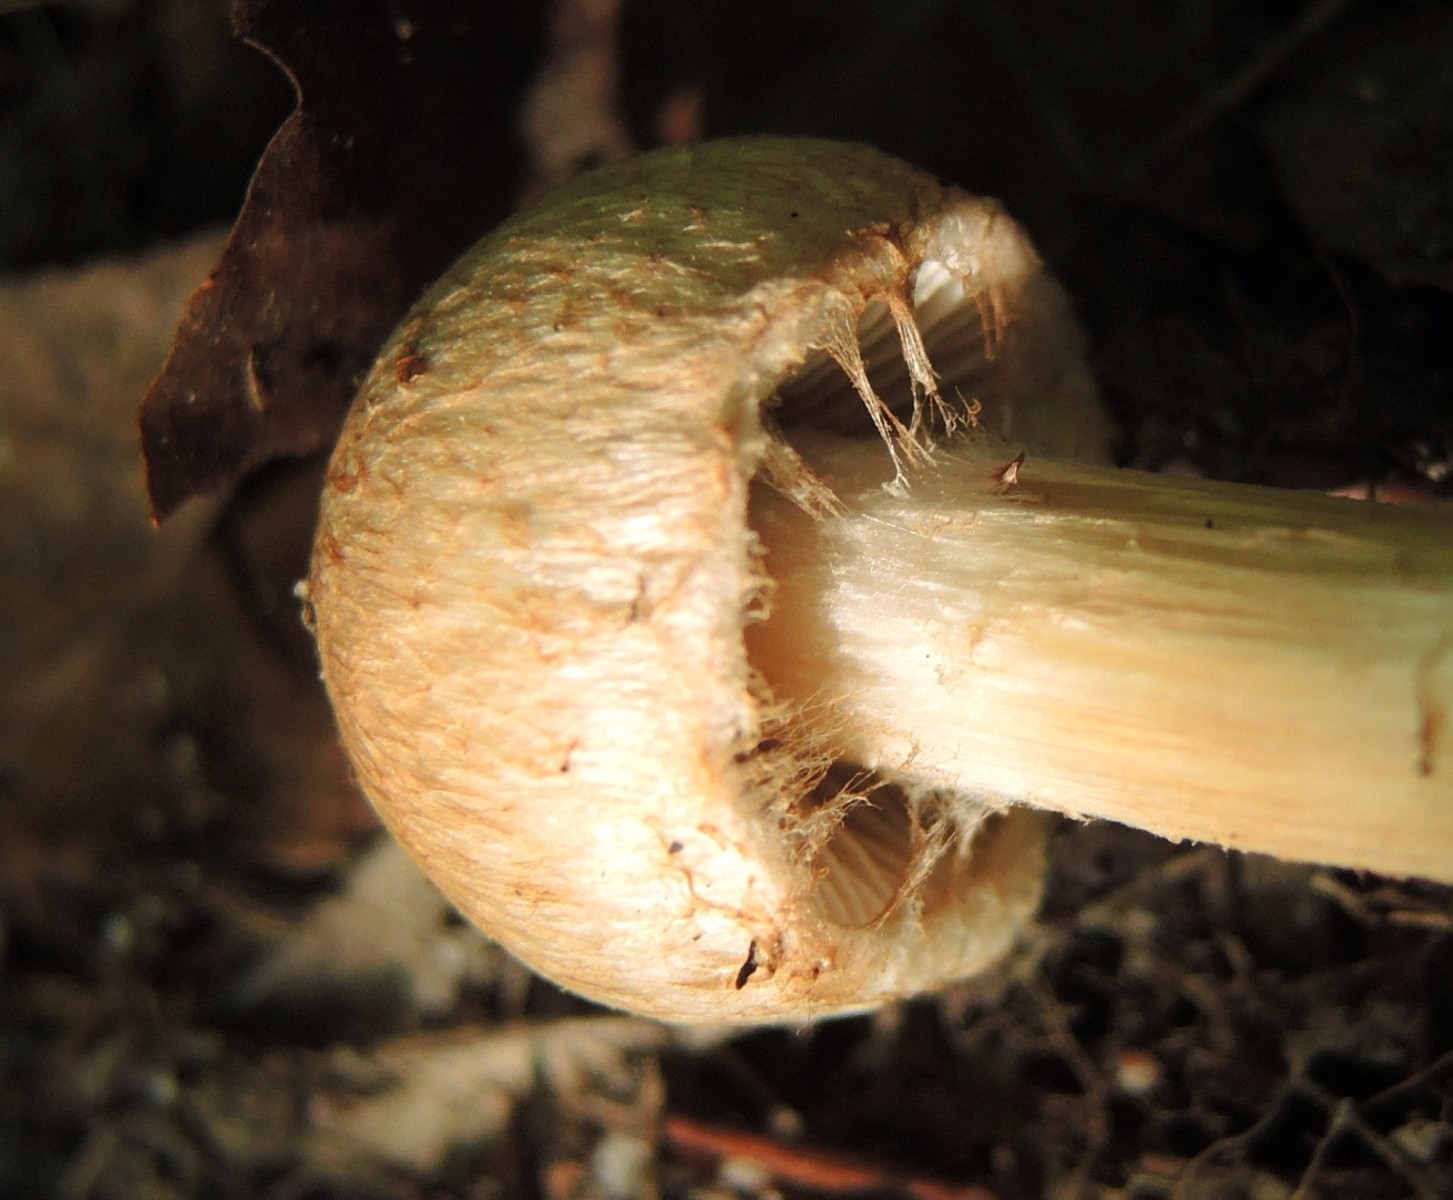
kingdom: Fungi
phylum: Basidiomycota
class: Agaricomycetes
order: Agaricales
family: Inocybaceae
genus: Inosperma
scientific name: Inosperma bongardii
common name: Bongards trævlhat
